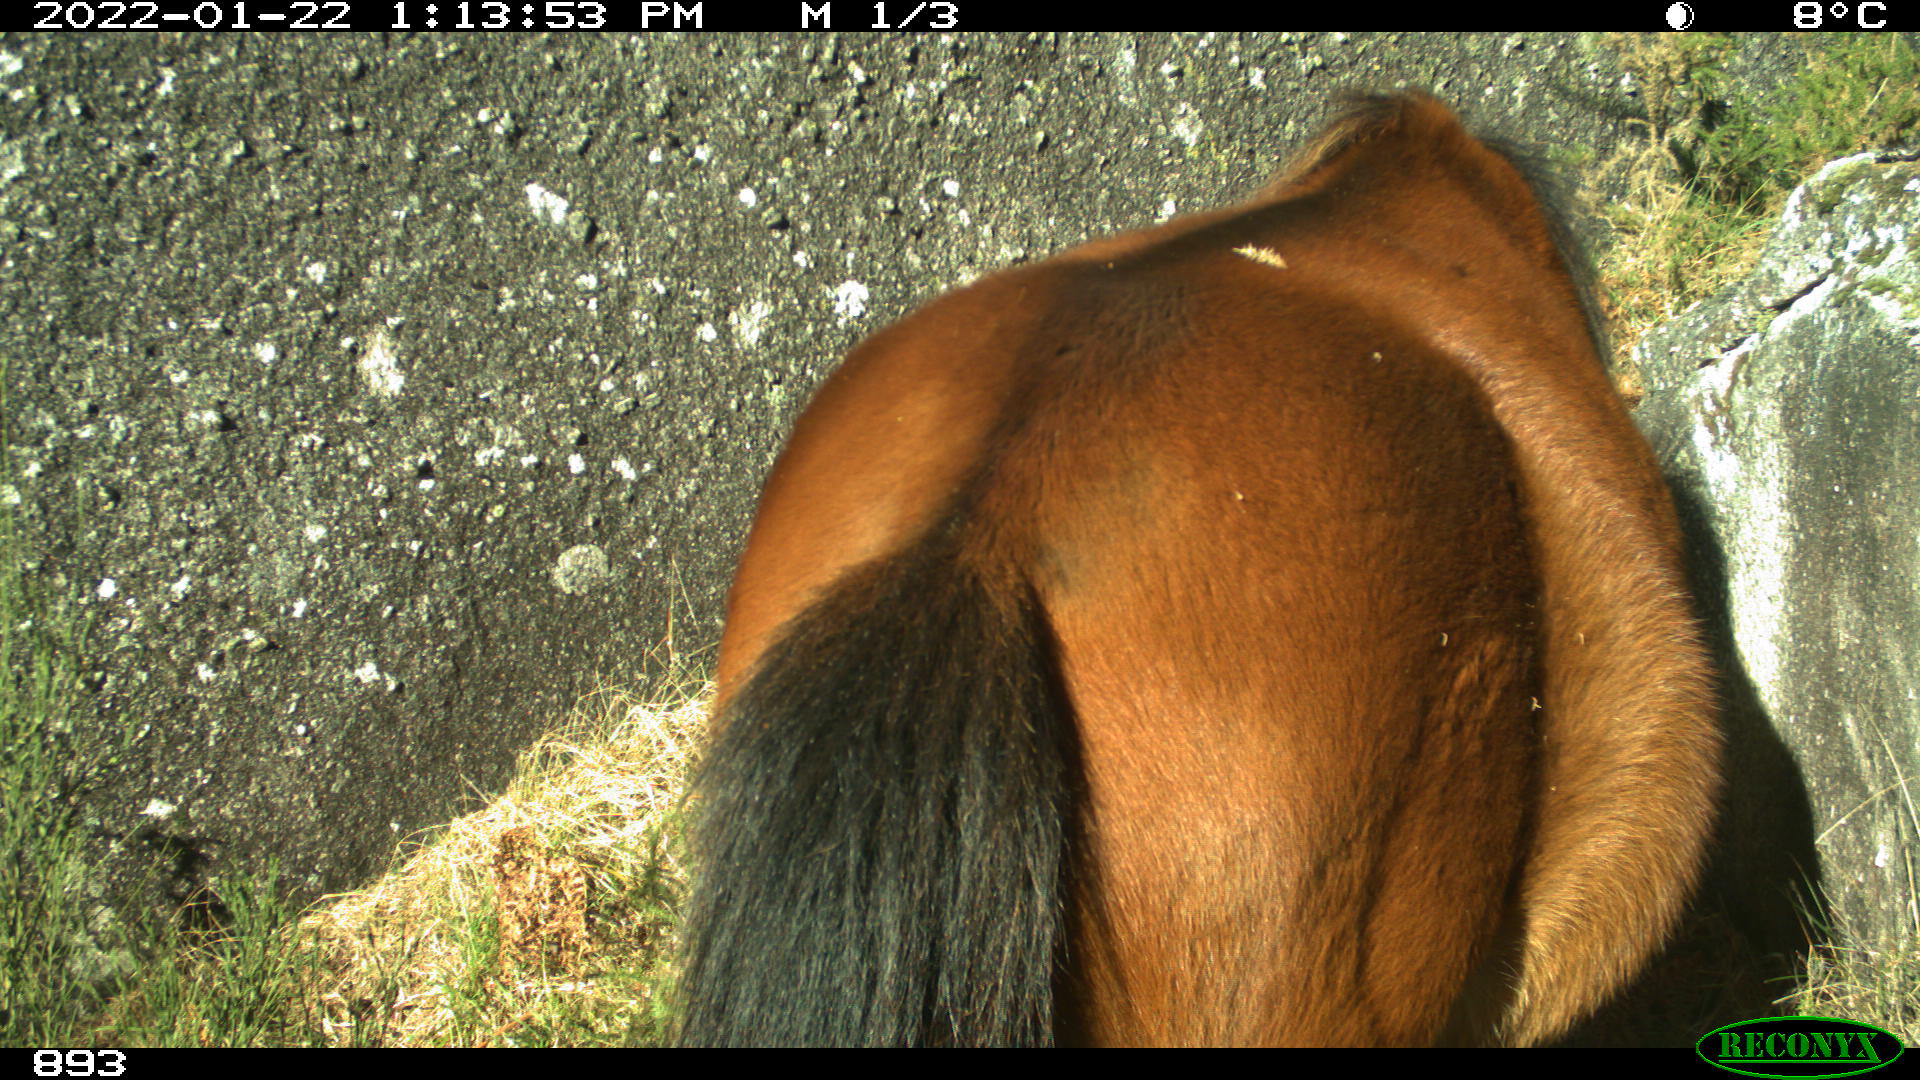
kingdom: Animalia
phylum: Chordata
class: Mammalia
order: Perissodactyla
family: Equidae
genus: Equus
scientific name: Equus caballus
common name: Horse
